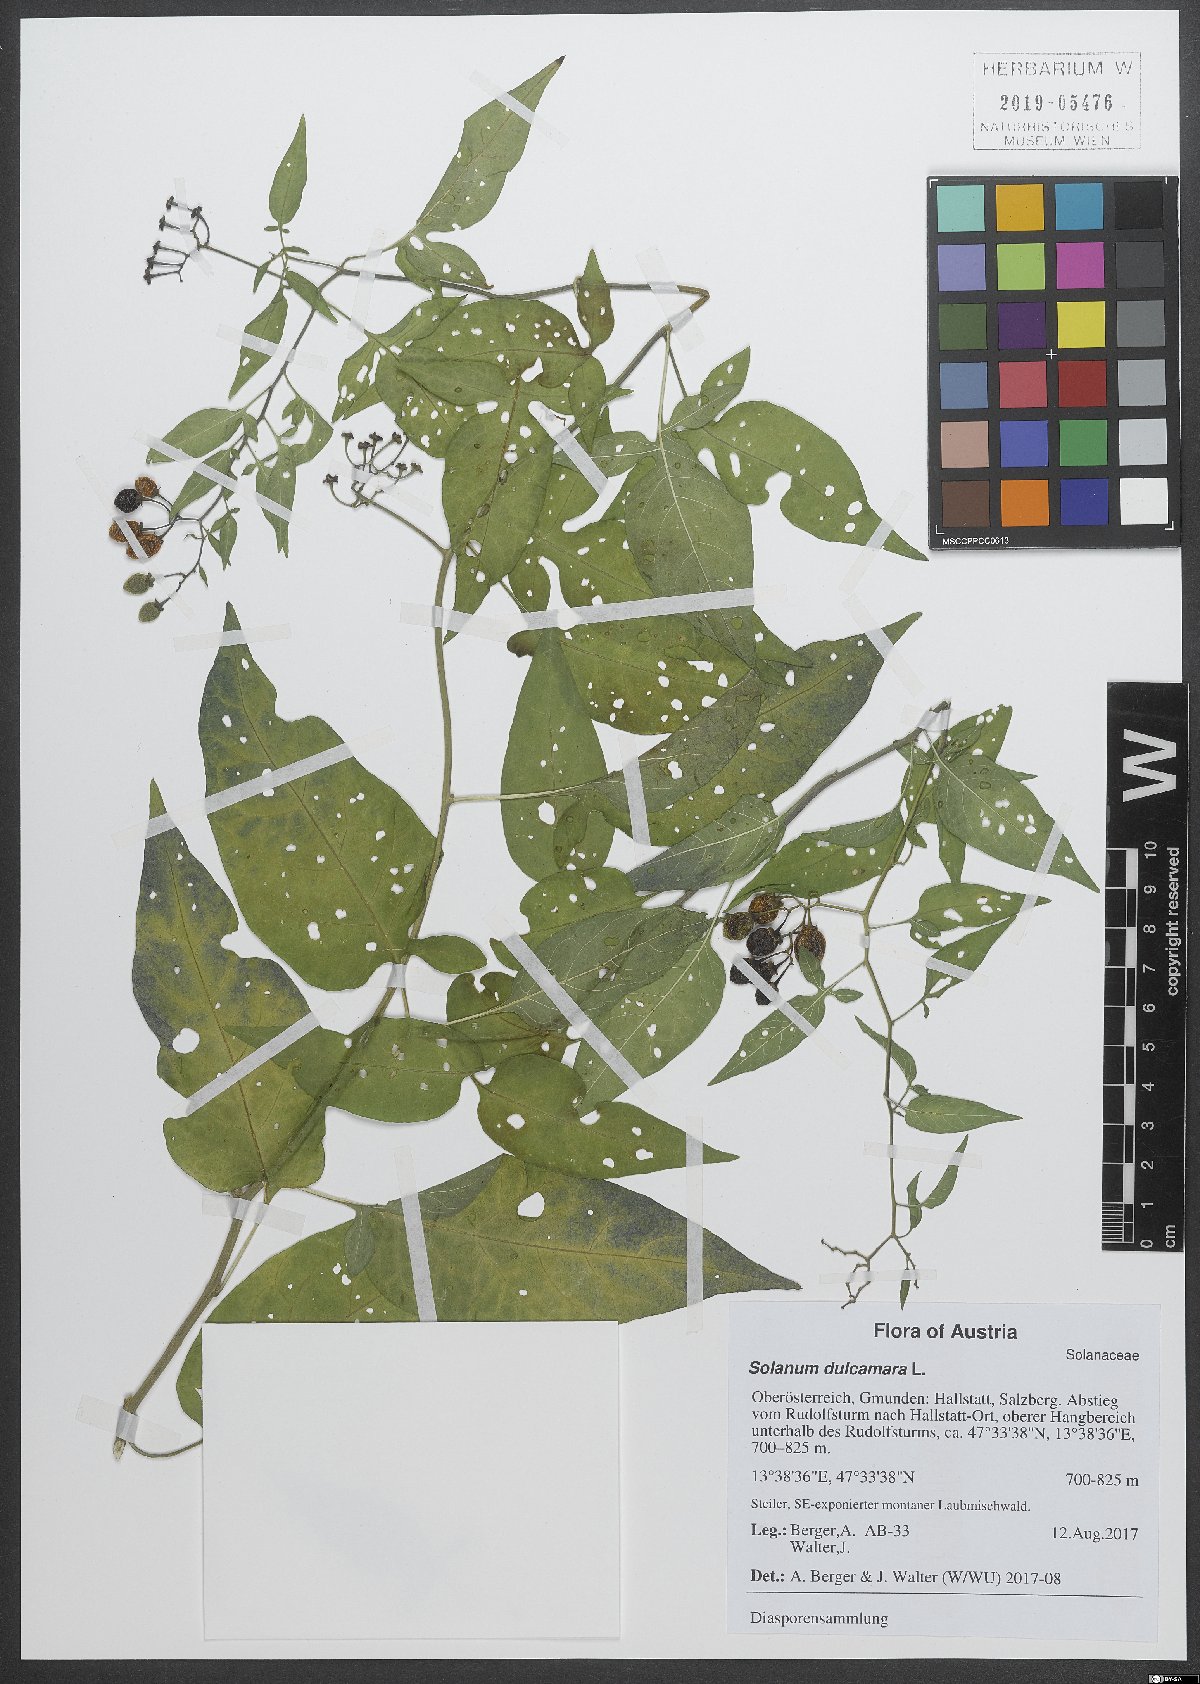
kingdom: Plantae
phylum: Tracheophyta
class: Magnoliopsida
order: Solanales
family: Solanaceae
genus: Solanum
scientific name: Solanum dulcamara
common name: Climbing nightshade
